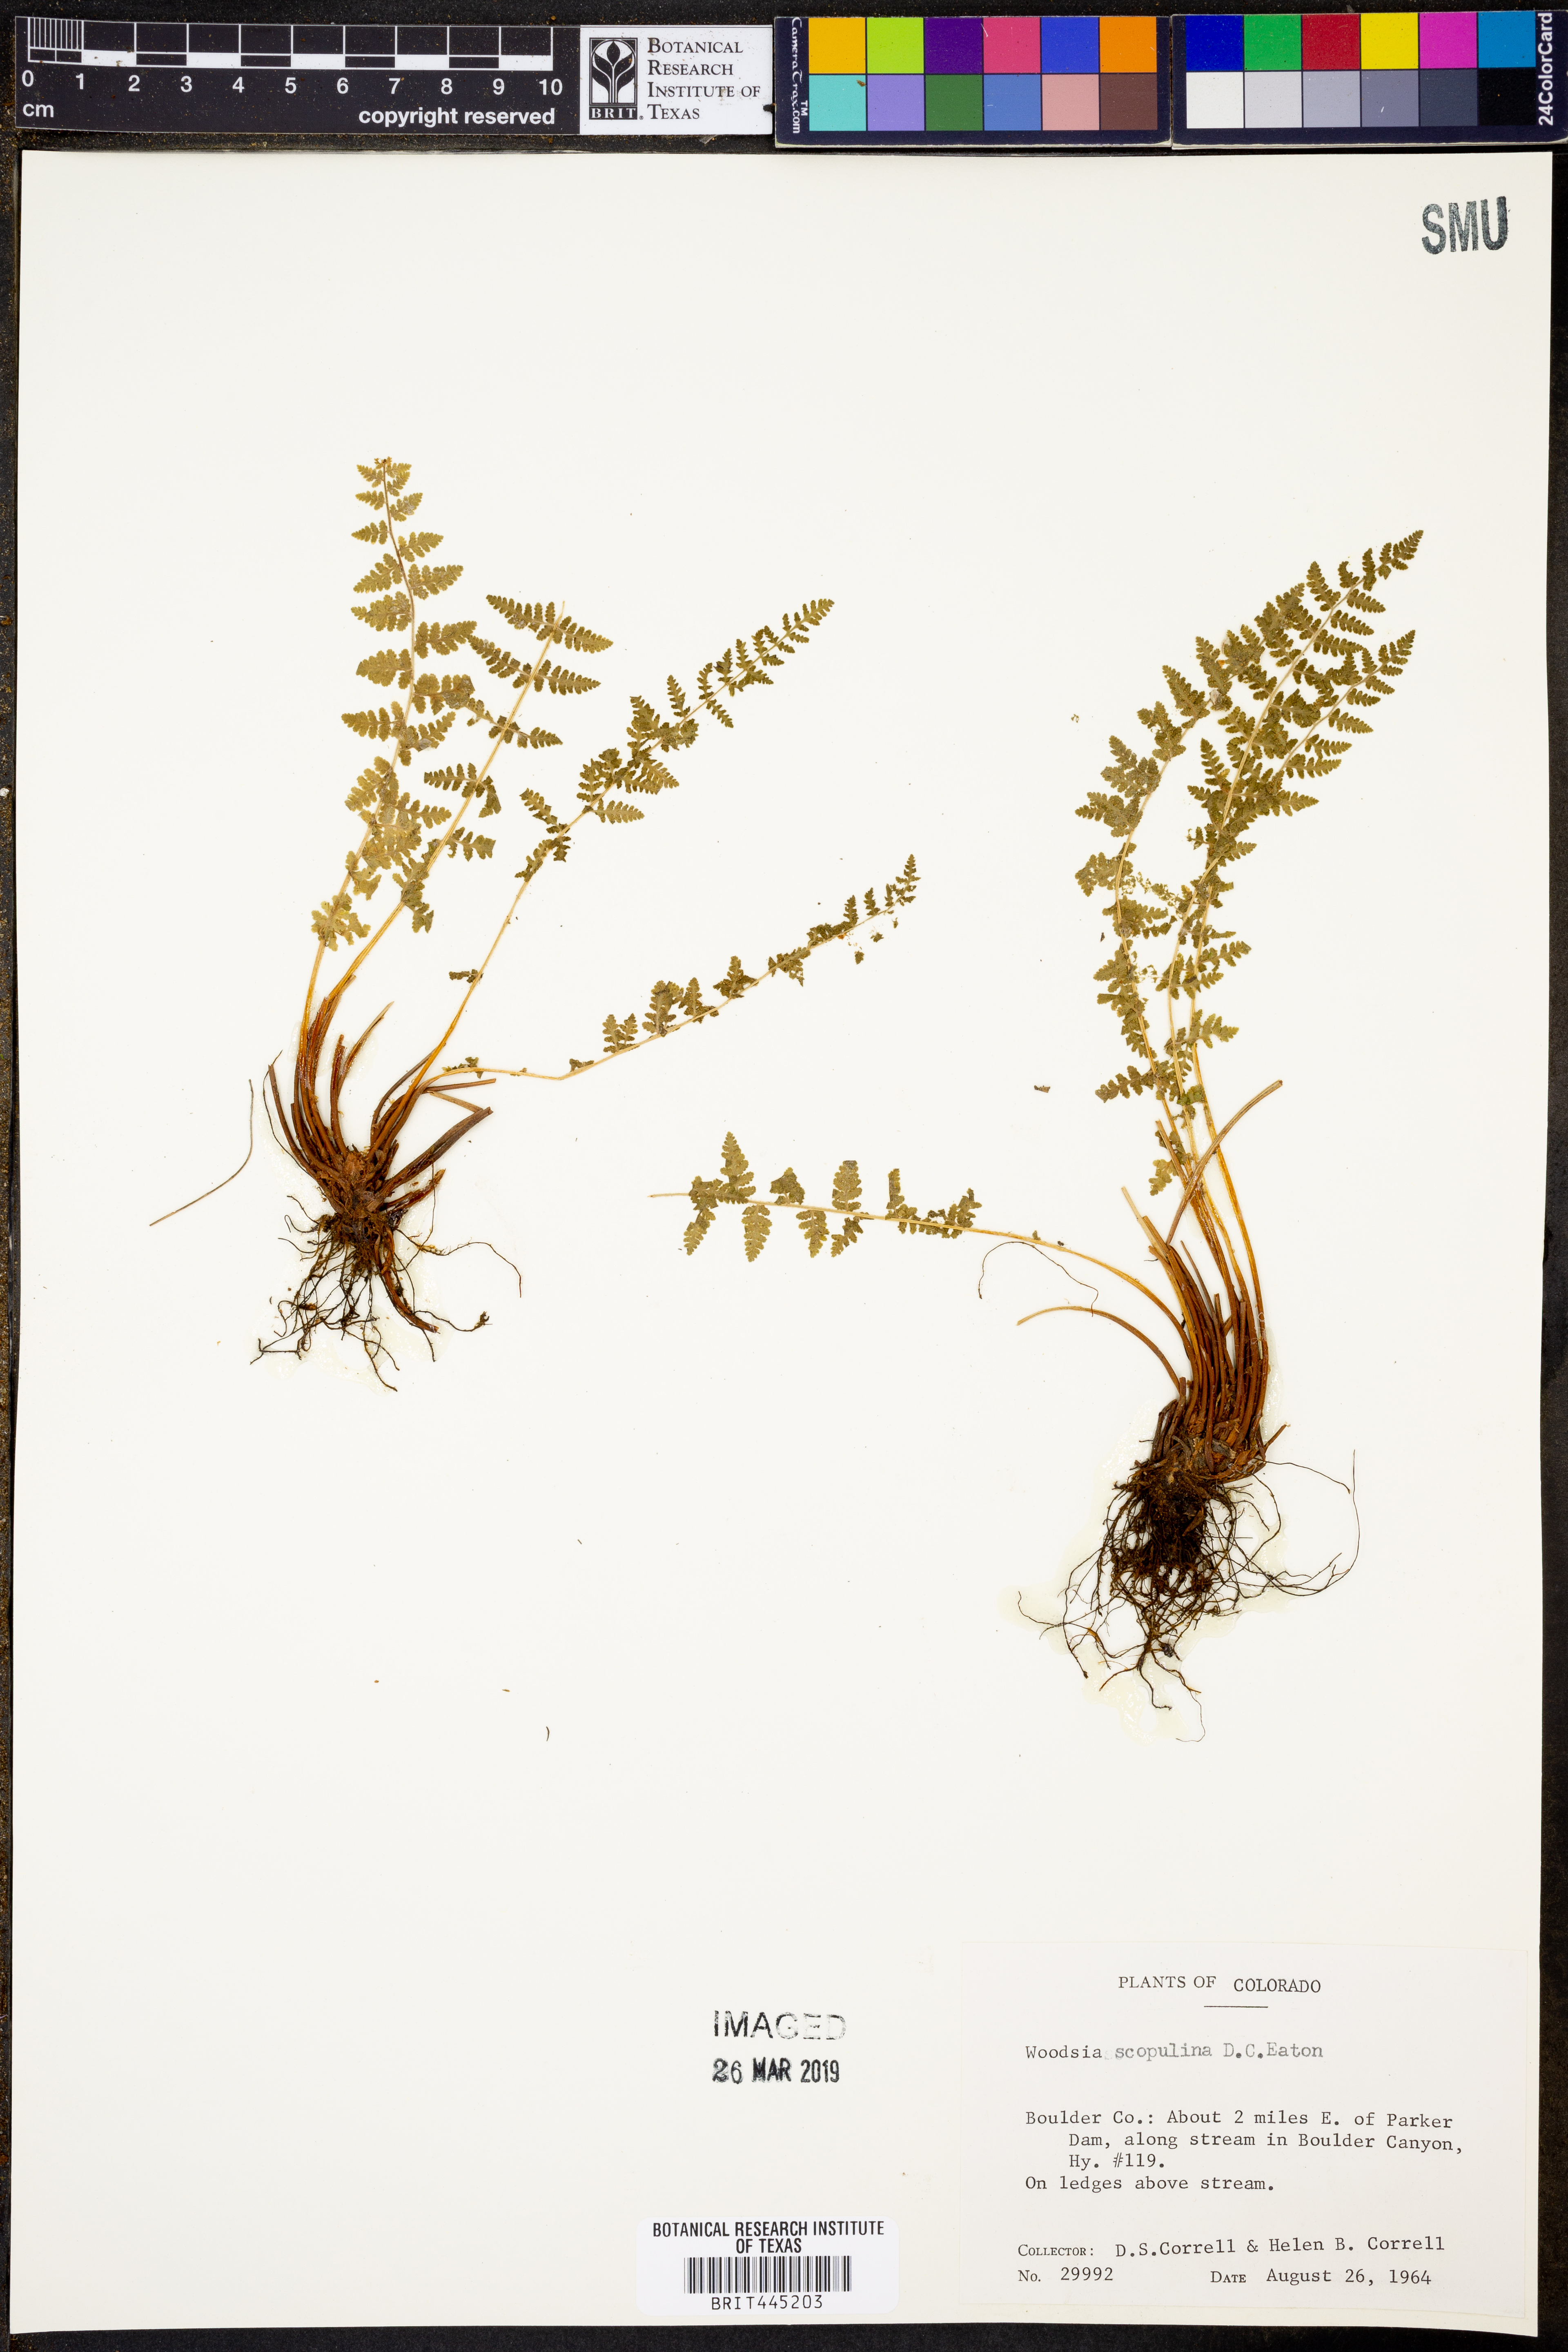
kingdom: Plantae
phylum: Tracheophyta
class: Polypodiopsida
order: Polypodiales
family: Woodsiaceae
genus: Physematium
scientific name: Physematium scopulinum
